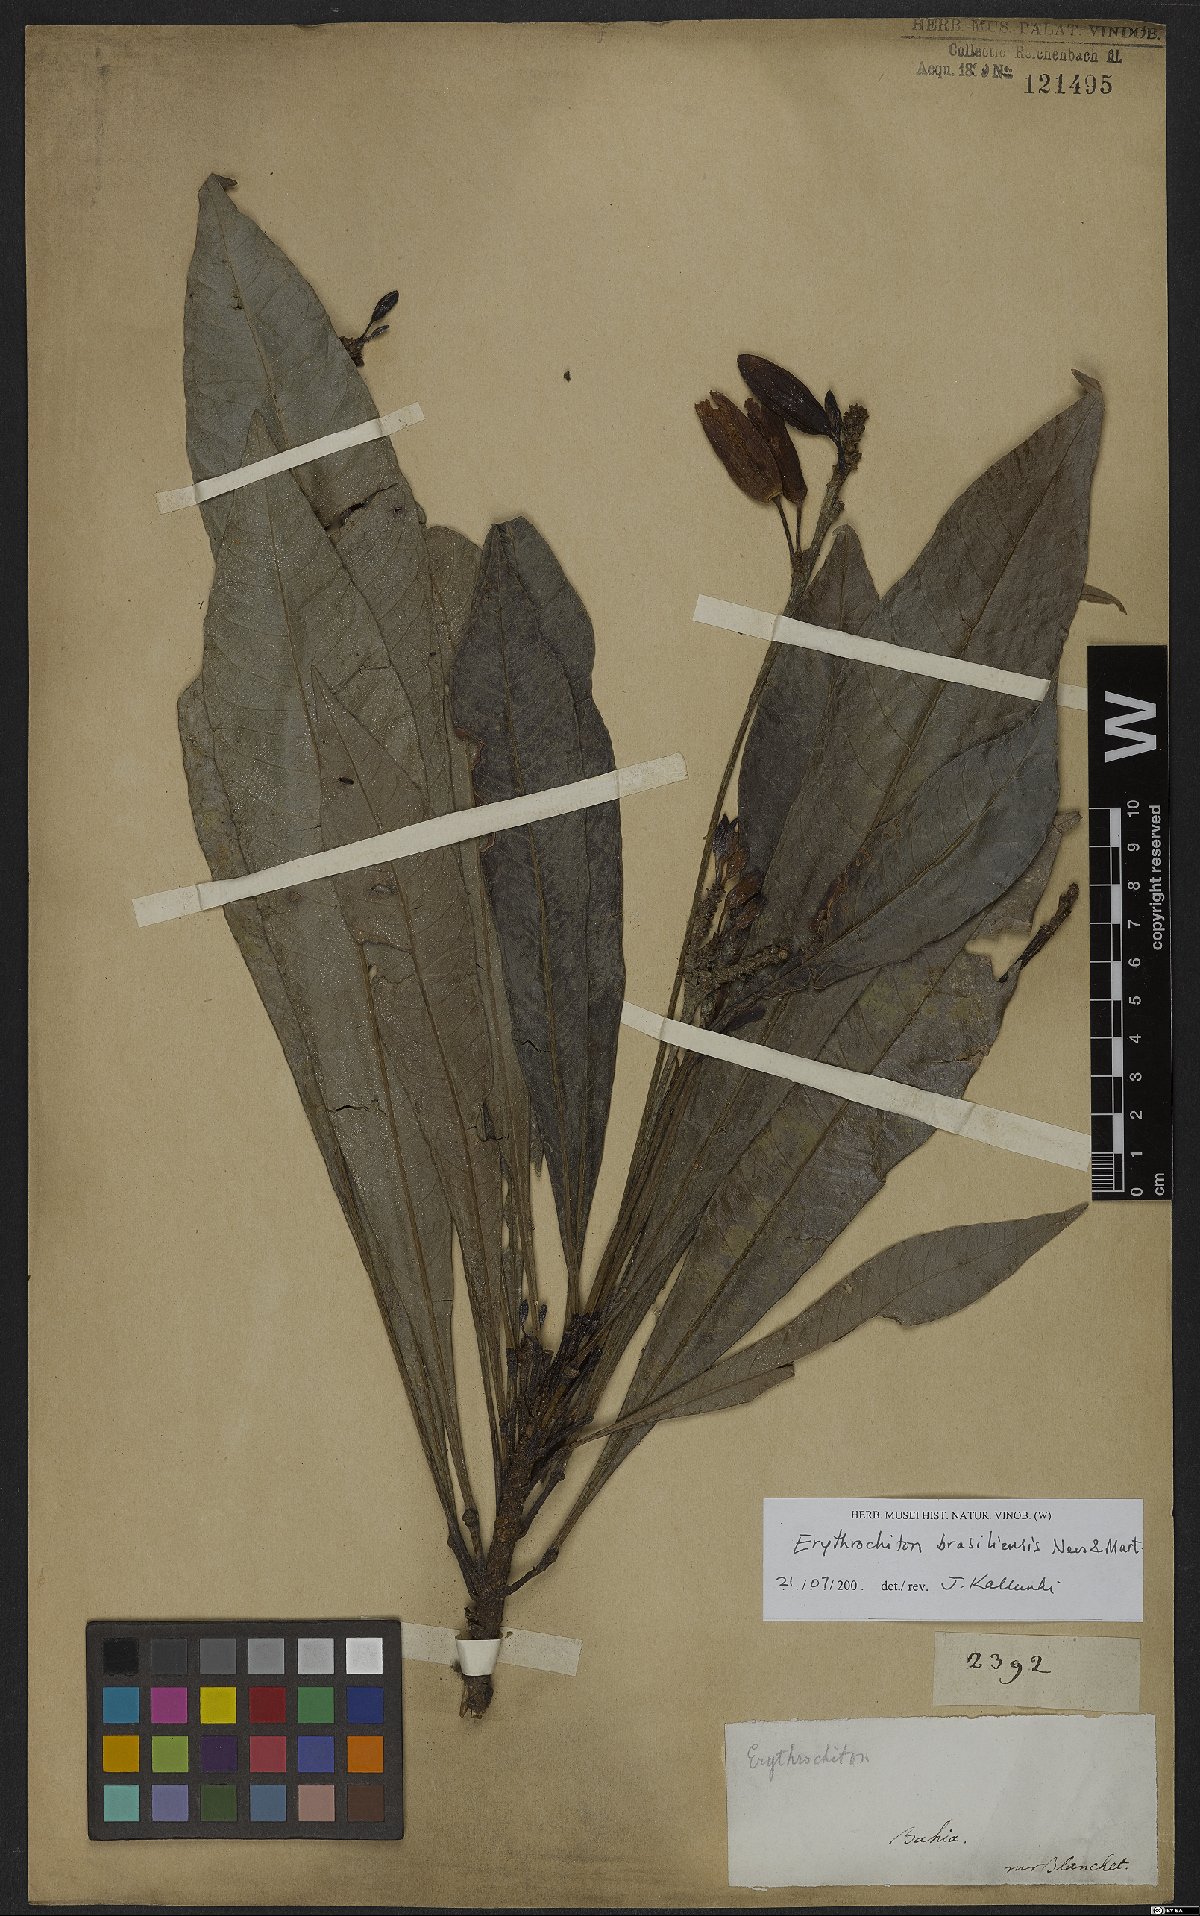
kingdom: Plantae
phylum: Tracheophyta
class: Magnoliopsida
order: Sapindales
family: Rutaceae
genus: Erythrochiton
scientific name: Erythrochiton brasiliensis
